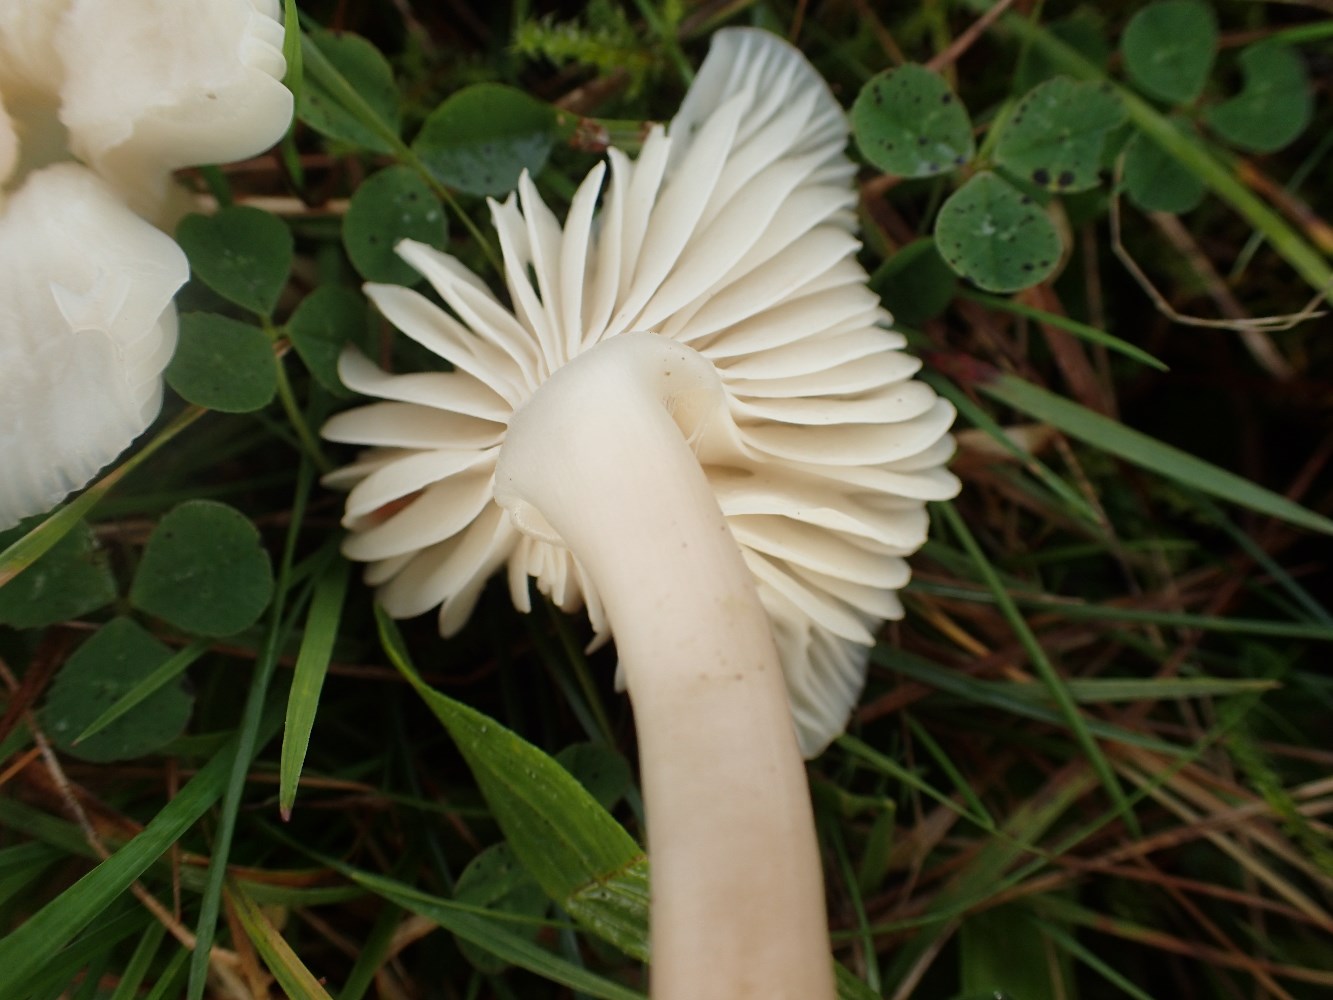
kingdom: Fungi
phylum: Basidiomycota
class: Agaricomycetes
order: Agaricales
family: Hygrophoraceae
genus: Cuphophyllus
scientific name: Cuphophyllus virgineus
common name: snehvid vokshat
